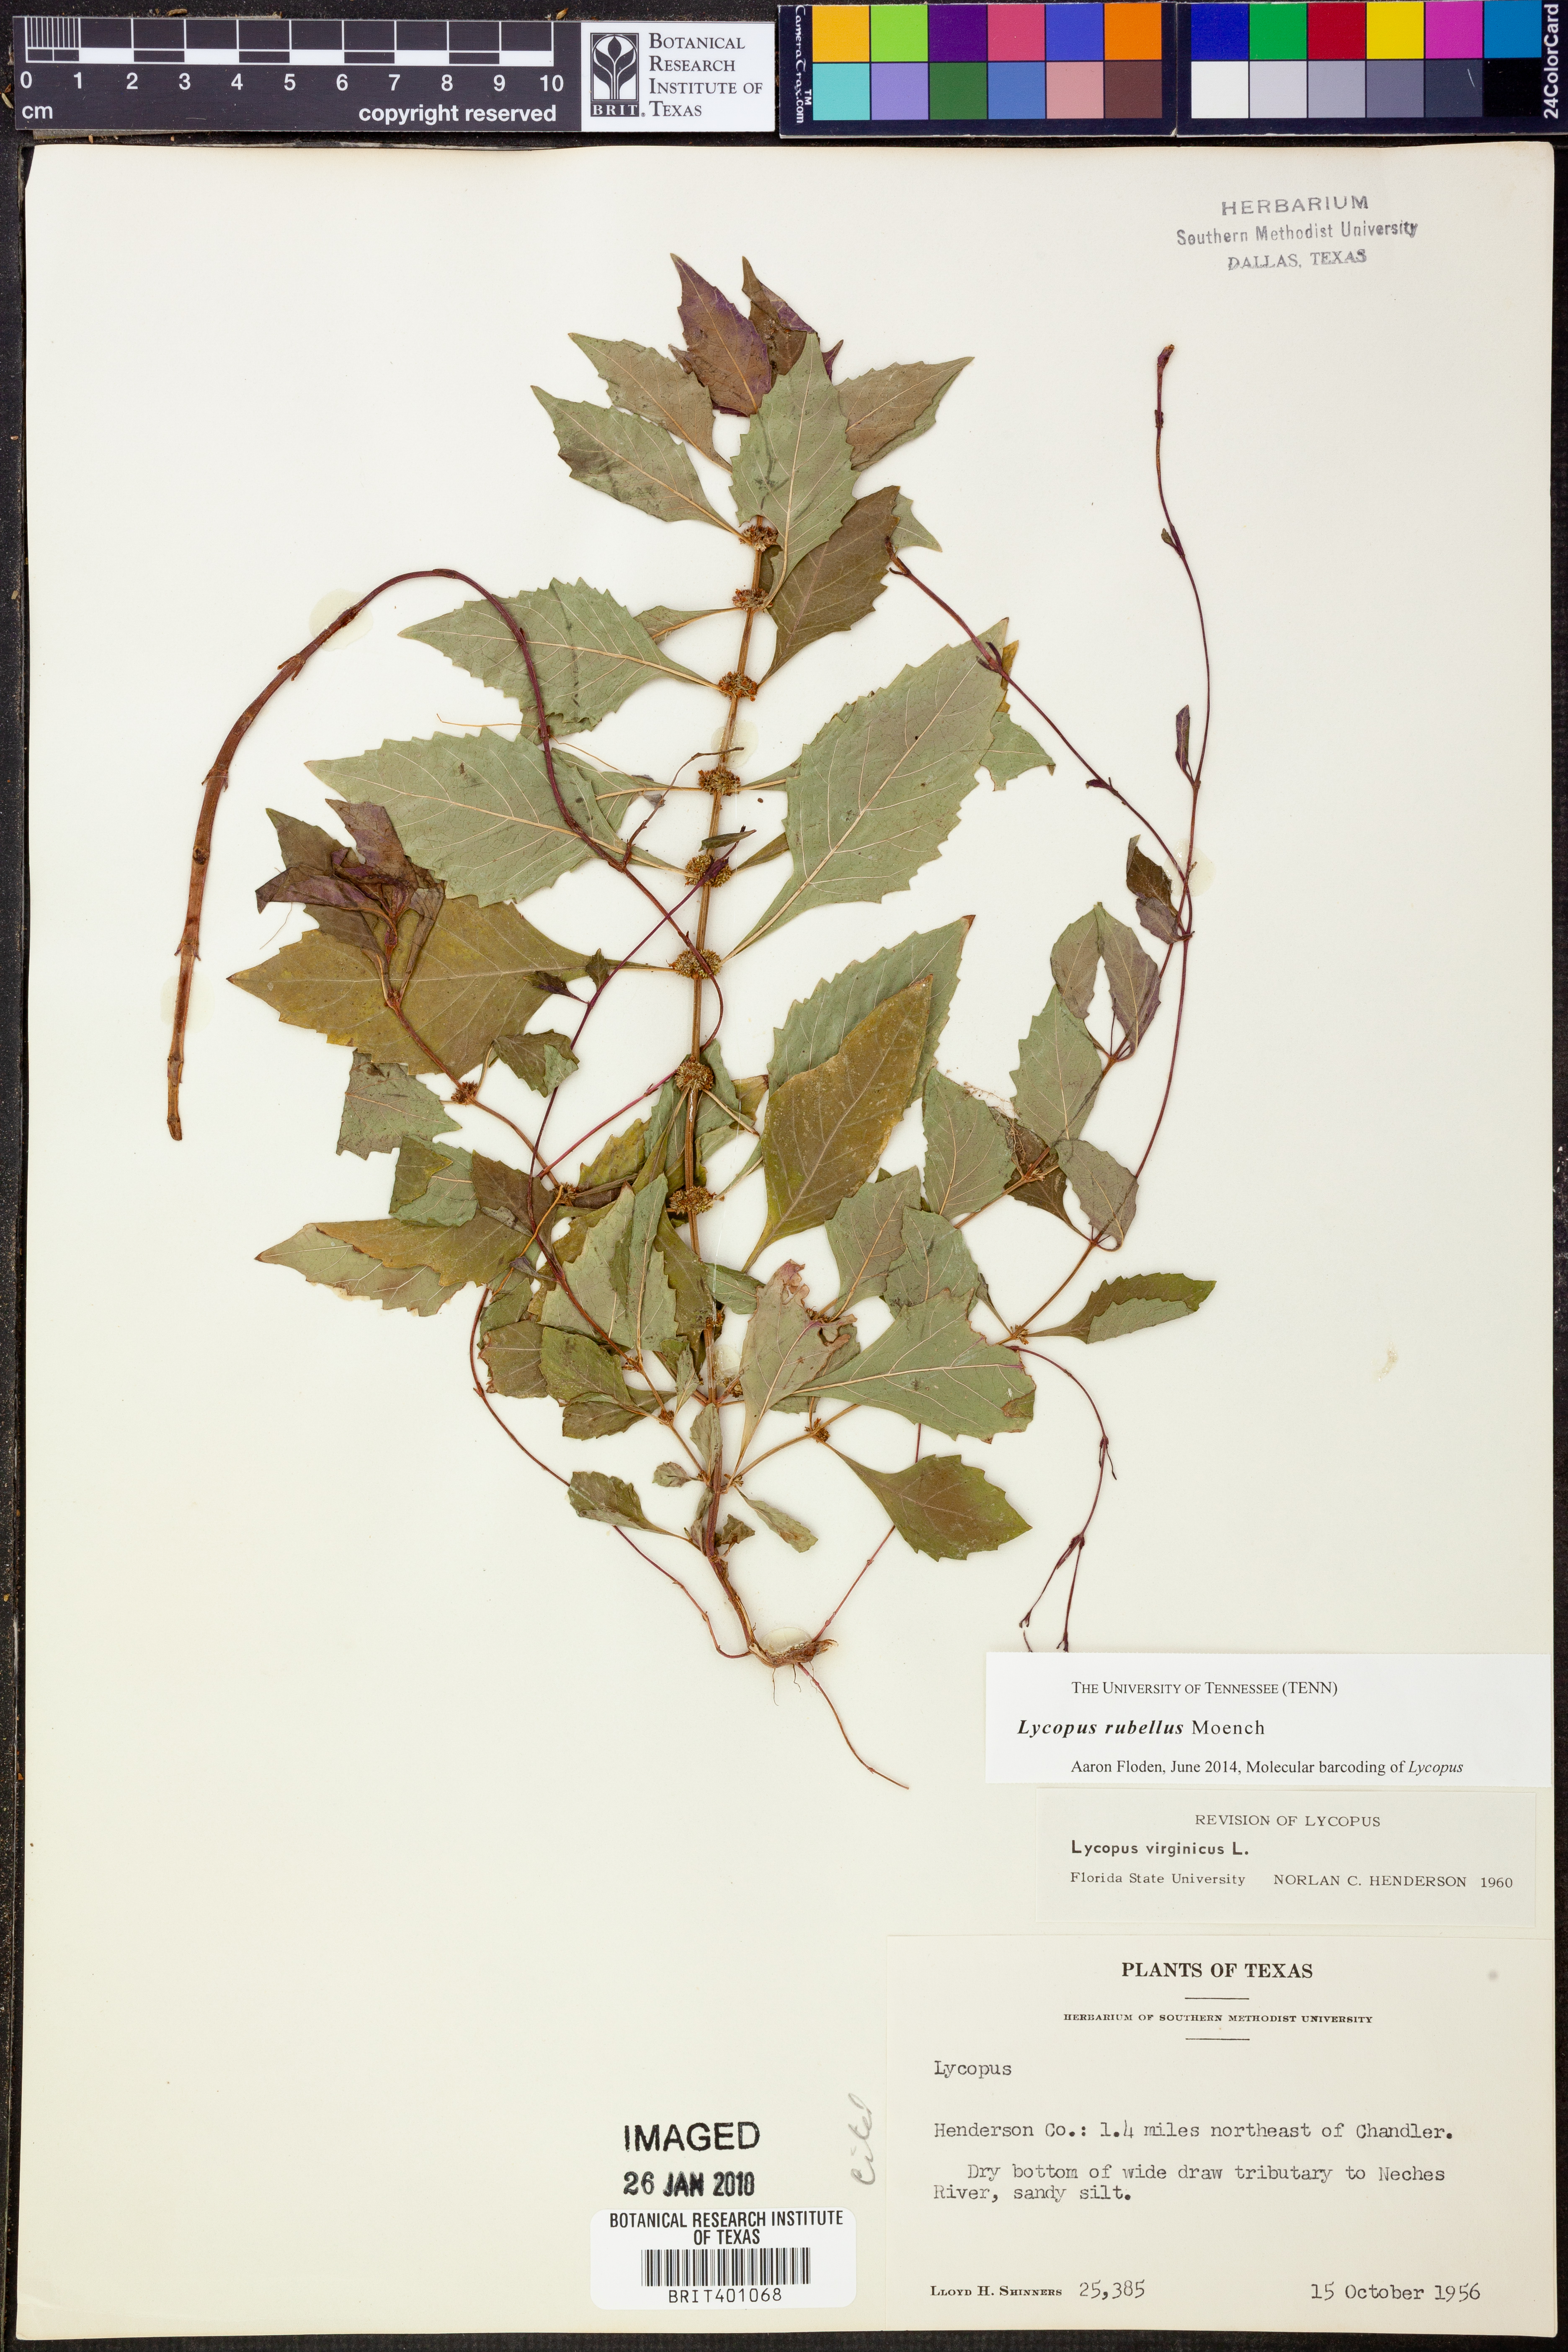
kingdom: Plantae
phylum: Tracheophyta
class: Magnoliopsida
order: Lamiales
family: Lamiaceae
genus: Lycopus
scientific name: Lycopus rubellus
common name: Stalked bugleweed
